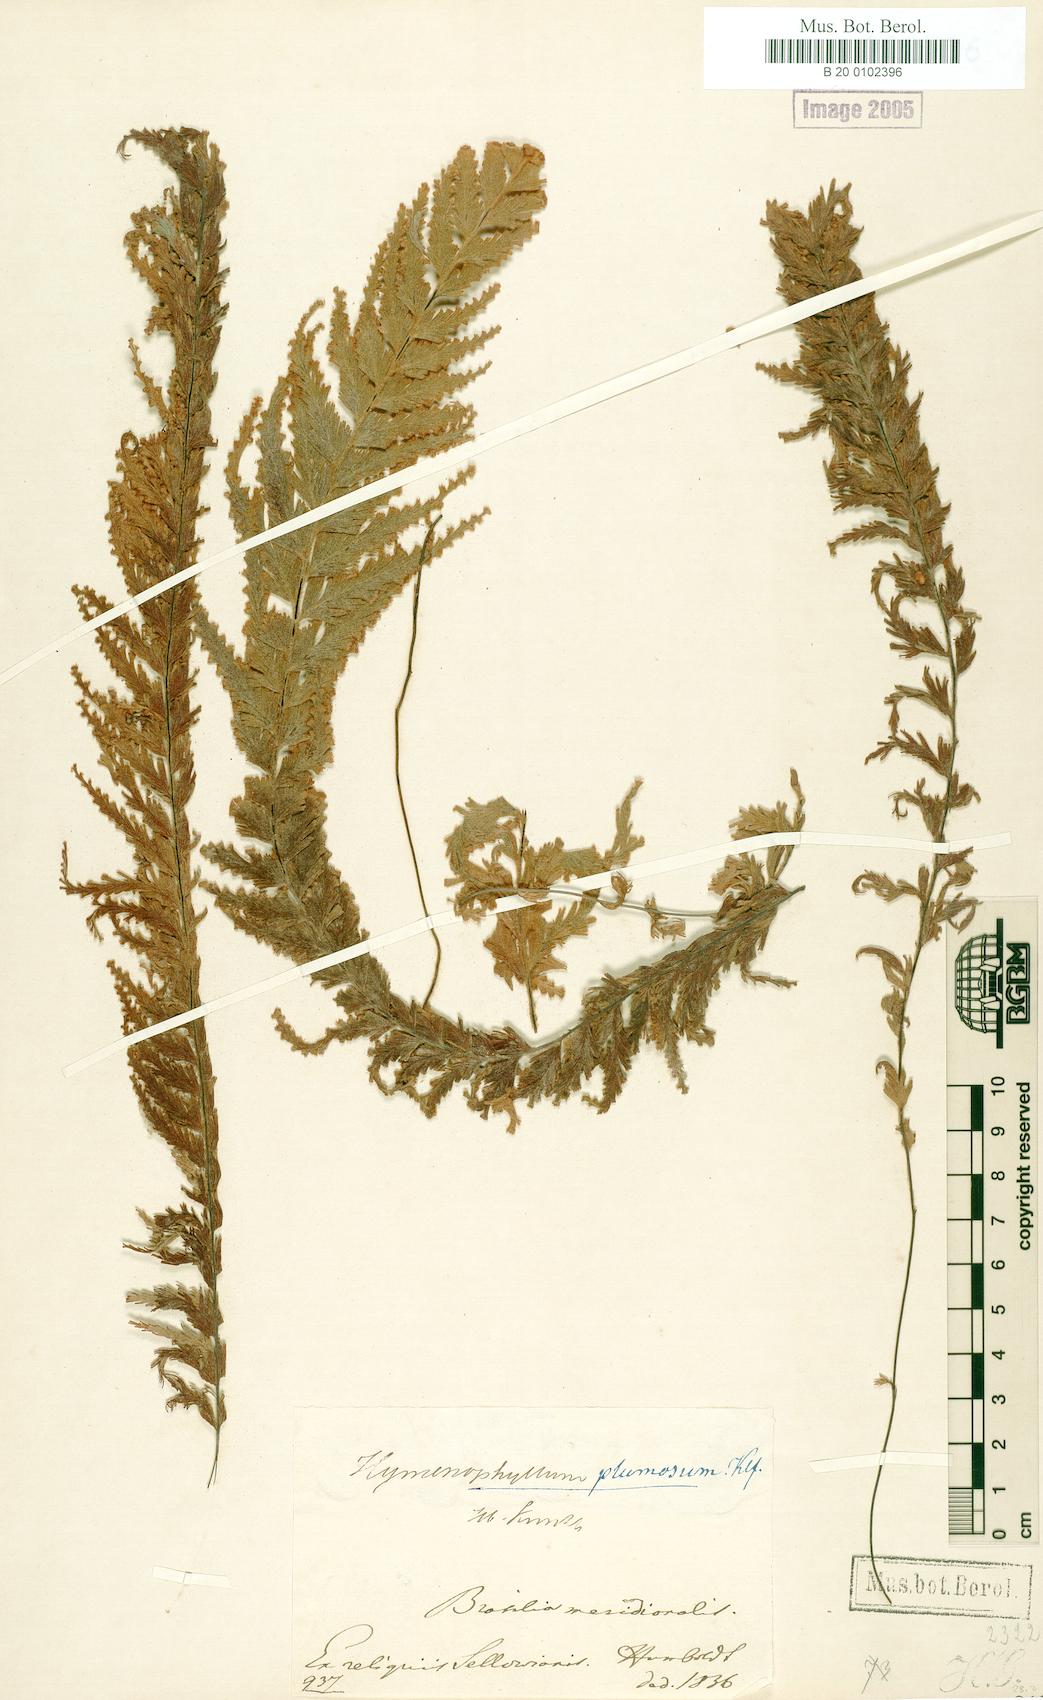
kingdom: Plantae
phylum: Tracheophyta
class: Polypodiopsida
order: Hymenophyllales
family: Hymenophyllaceae
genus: Hymenophyllum
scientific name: Hymenophyllum plumosum
